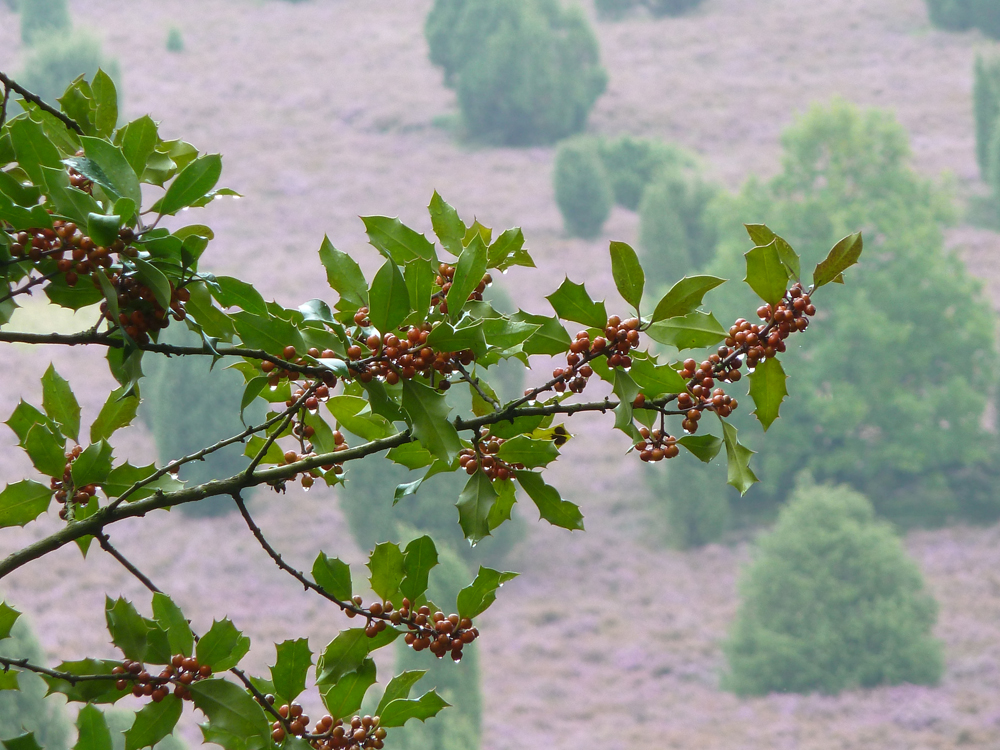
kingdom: Plantae
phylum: Tracheophyta
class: Magnoliopsida
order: Aquifoliales
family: Aquifoliaceae
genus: Ilex
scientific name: Ilex aquifolium
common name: English holly
